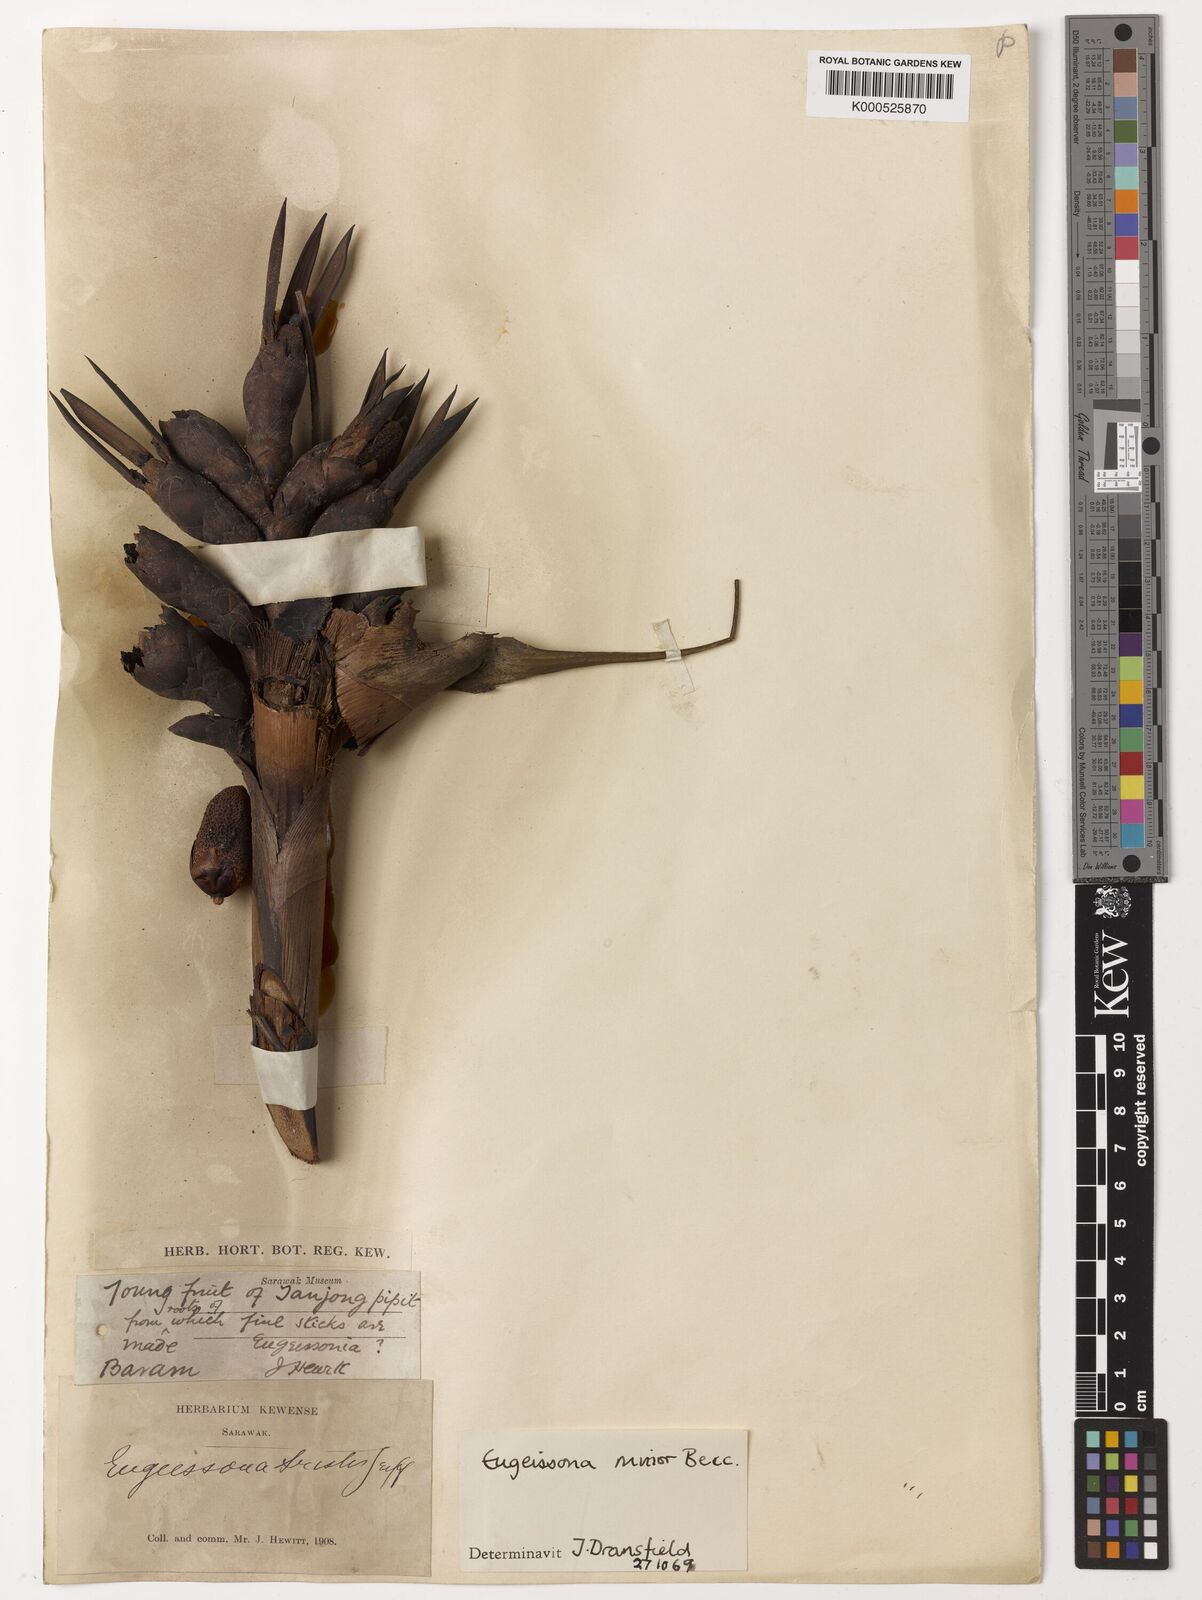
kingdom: Plantae
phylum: Tracheophyta
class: Liliopsida
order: Arecales
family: Arecaceae
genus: Eugeissona
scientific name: Eugeissona minor
